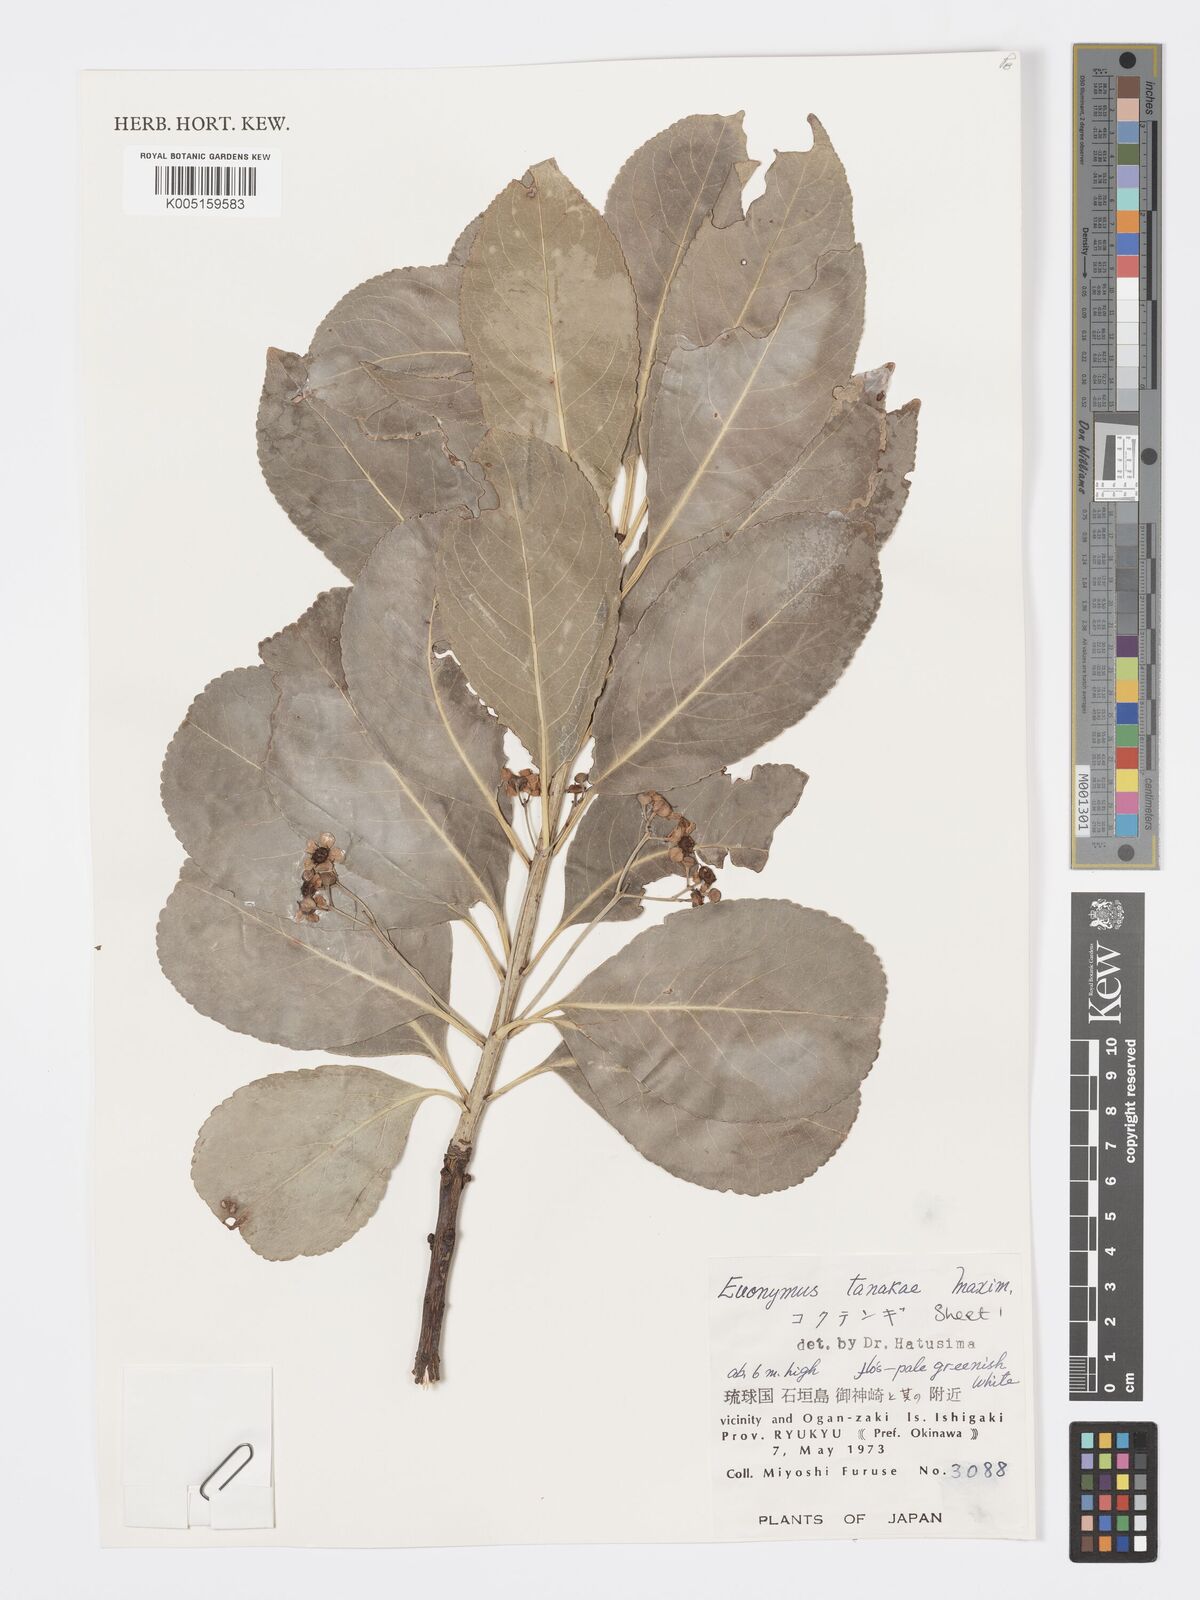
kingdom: Plantae
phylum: Tracheophyta
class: Magnoliopsida
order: Celastrales
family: Celastraceae
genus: Euonymus
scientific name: Euonymus carnosus
